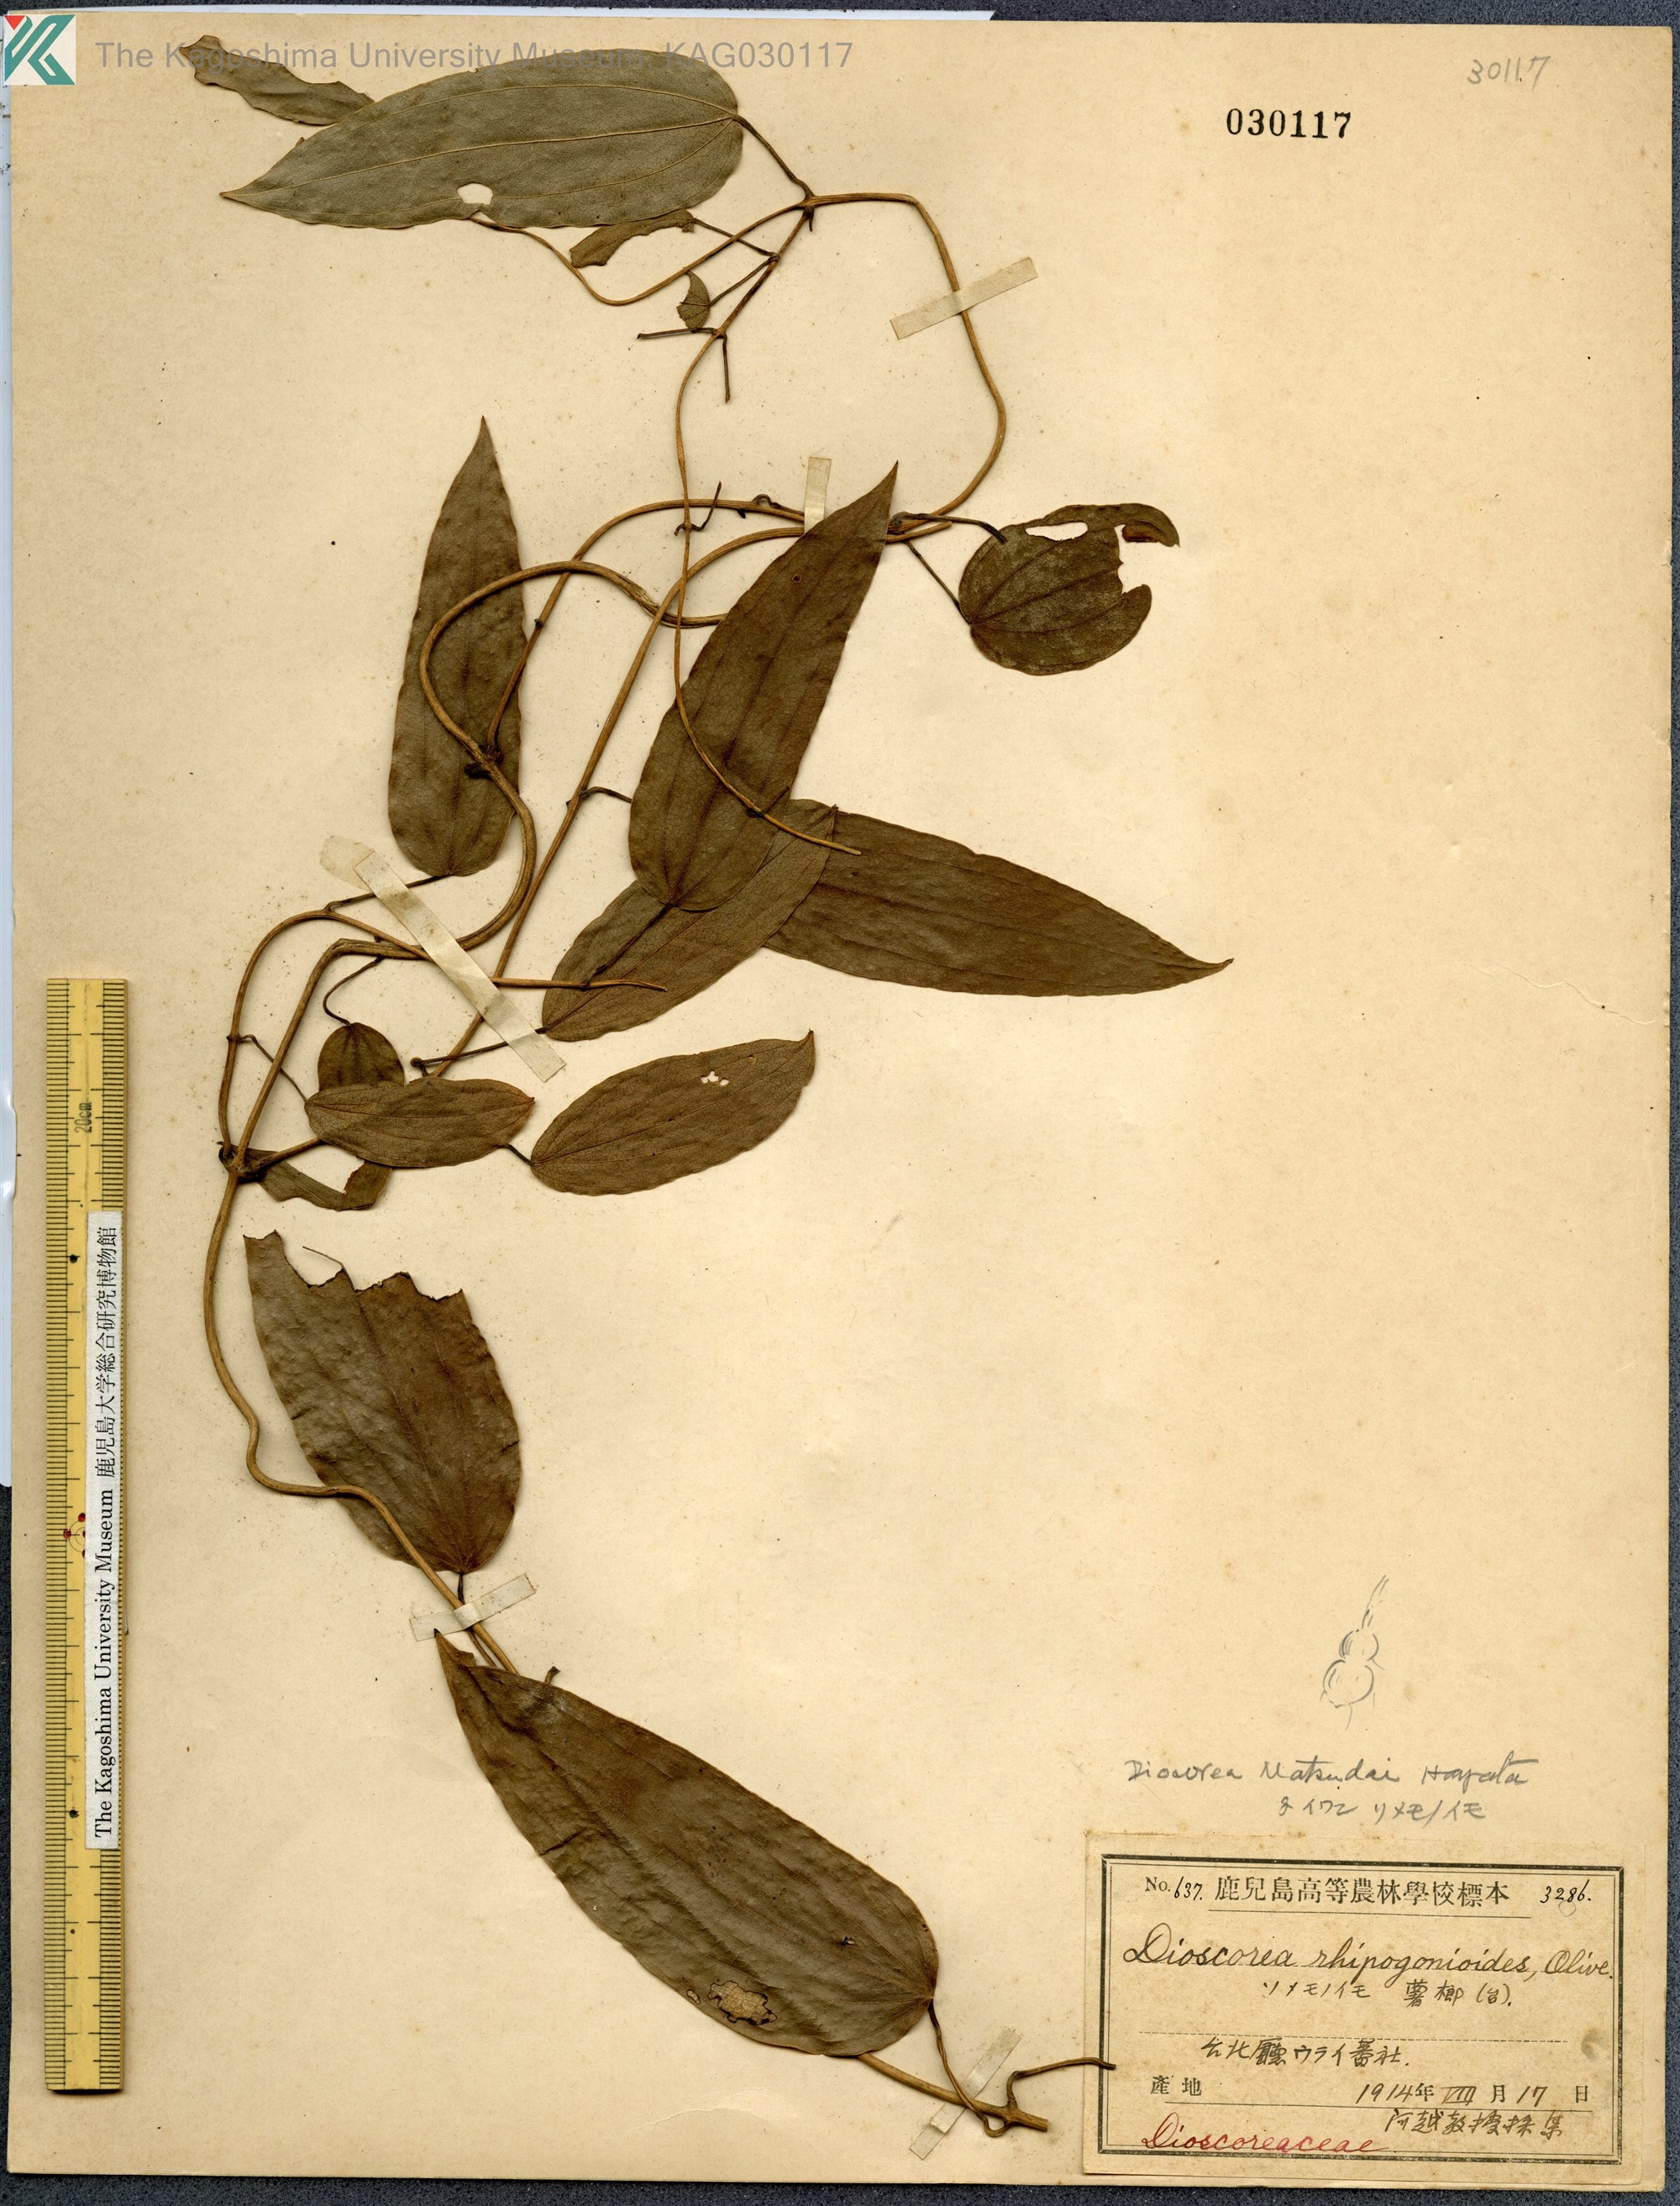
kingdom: Plantae
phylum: Tracheophyta
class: Liliopsida
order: Dioscoreales
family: Dioscoreaceae
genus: Dioscorea
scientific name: Dioscorea cirrhosa
